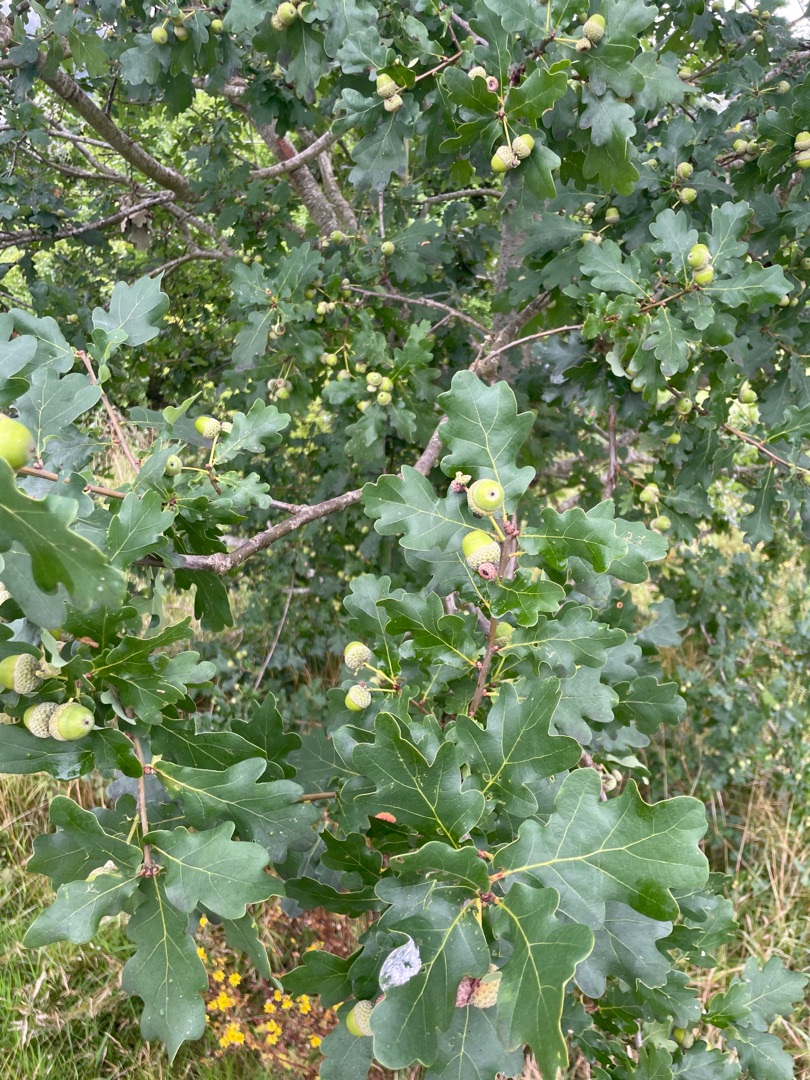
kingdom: Plantae
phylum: Tracheophyta
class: Magnoliopsida
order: Fagales
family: Fagaceae
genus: Quercus
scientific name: Quercus robur
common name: Stilk-eg/almindelig eg
